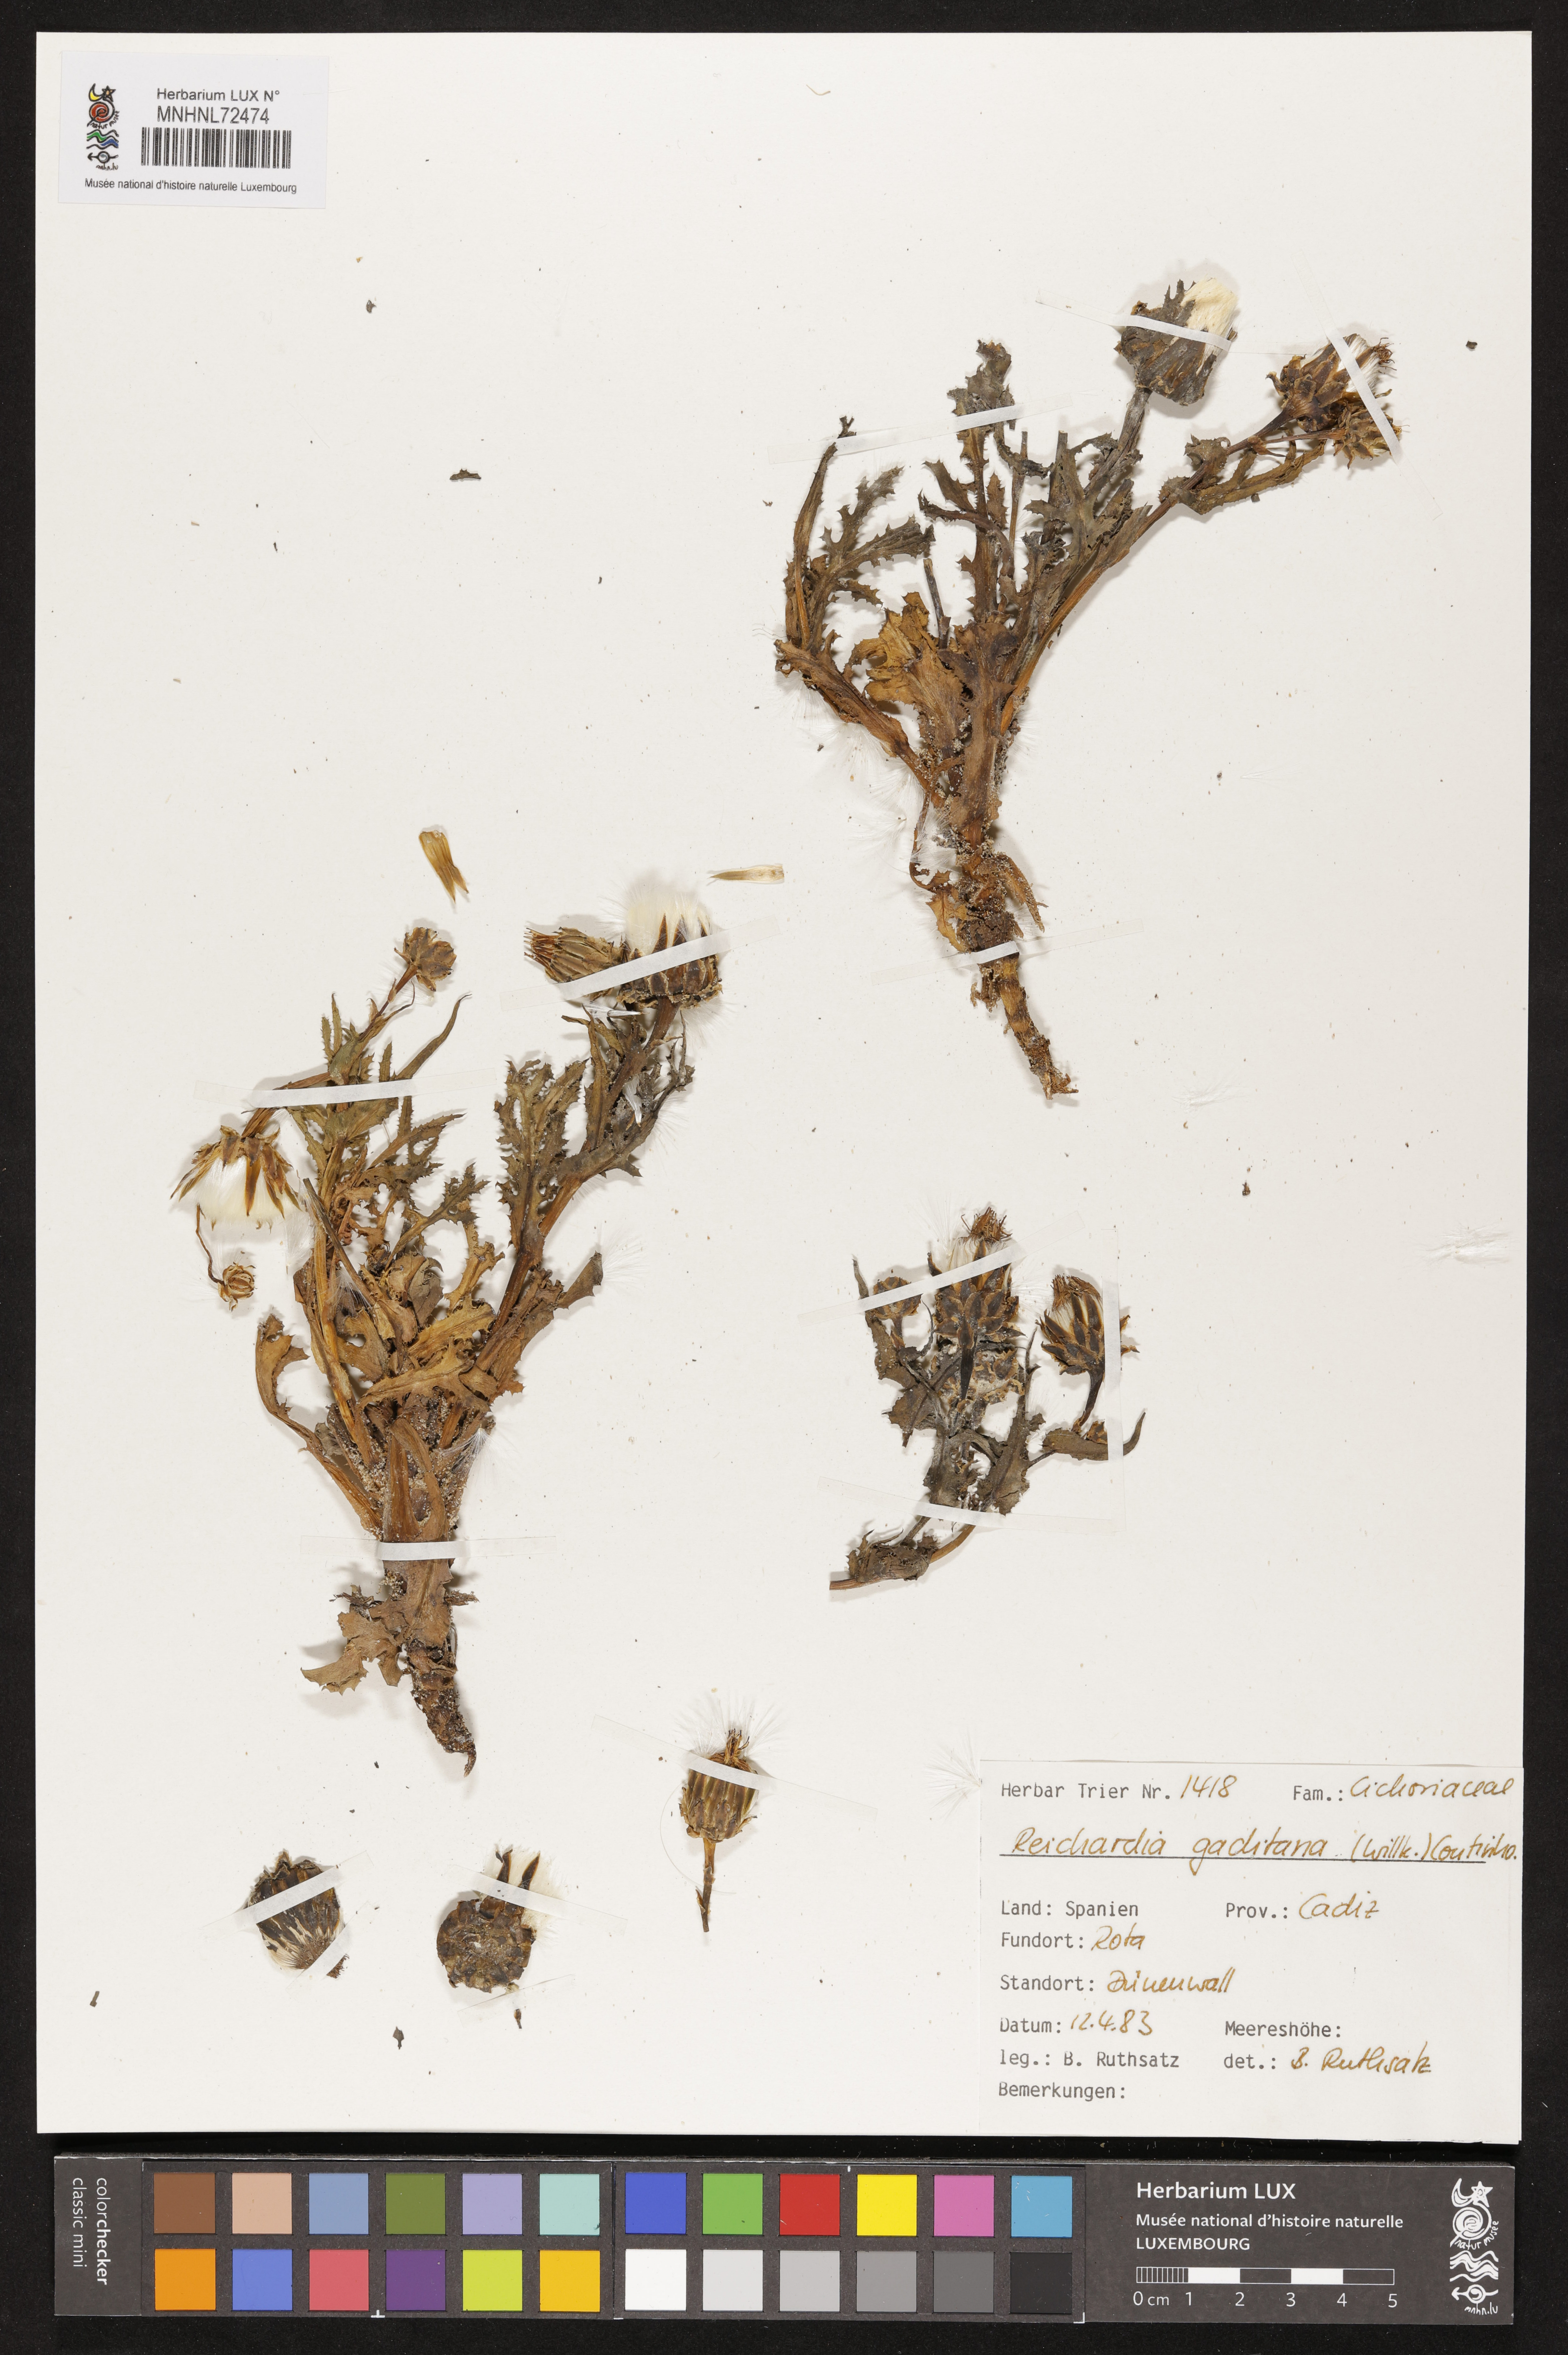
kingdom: Plantae
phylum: Tracheophyta
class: Magnoliopsida
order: Asterales
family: Asteraceae
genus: Reichardia
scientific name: Reichardia gaditana
